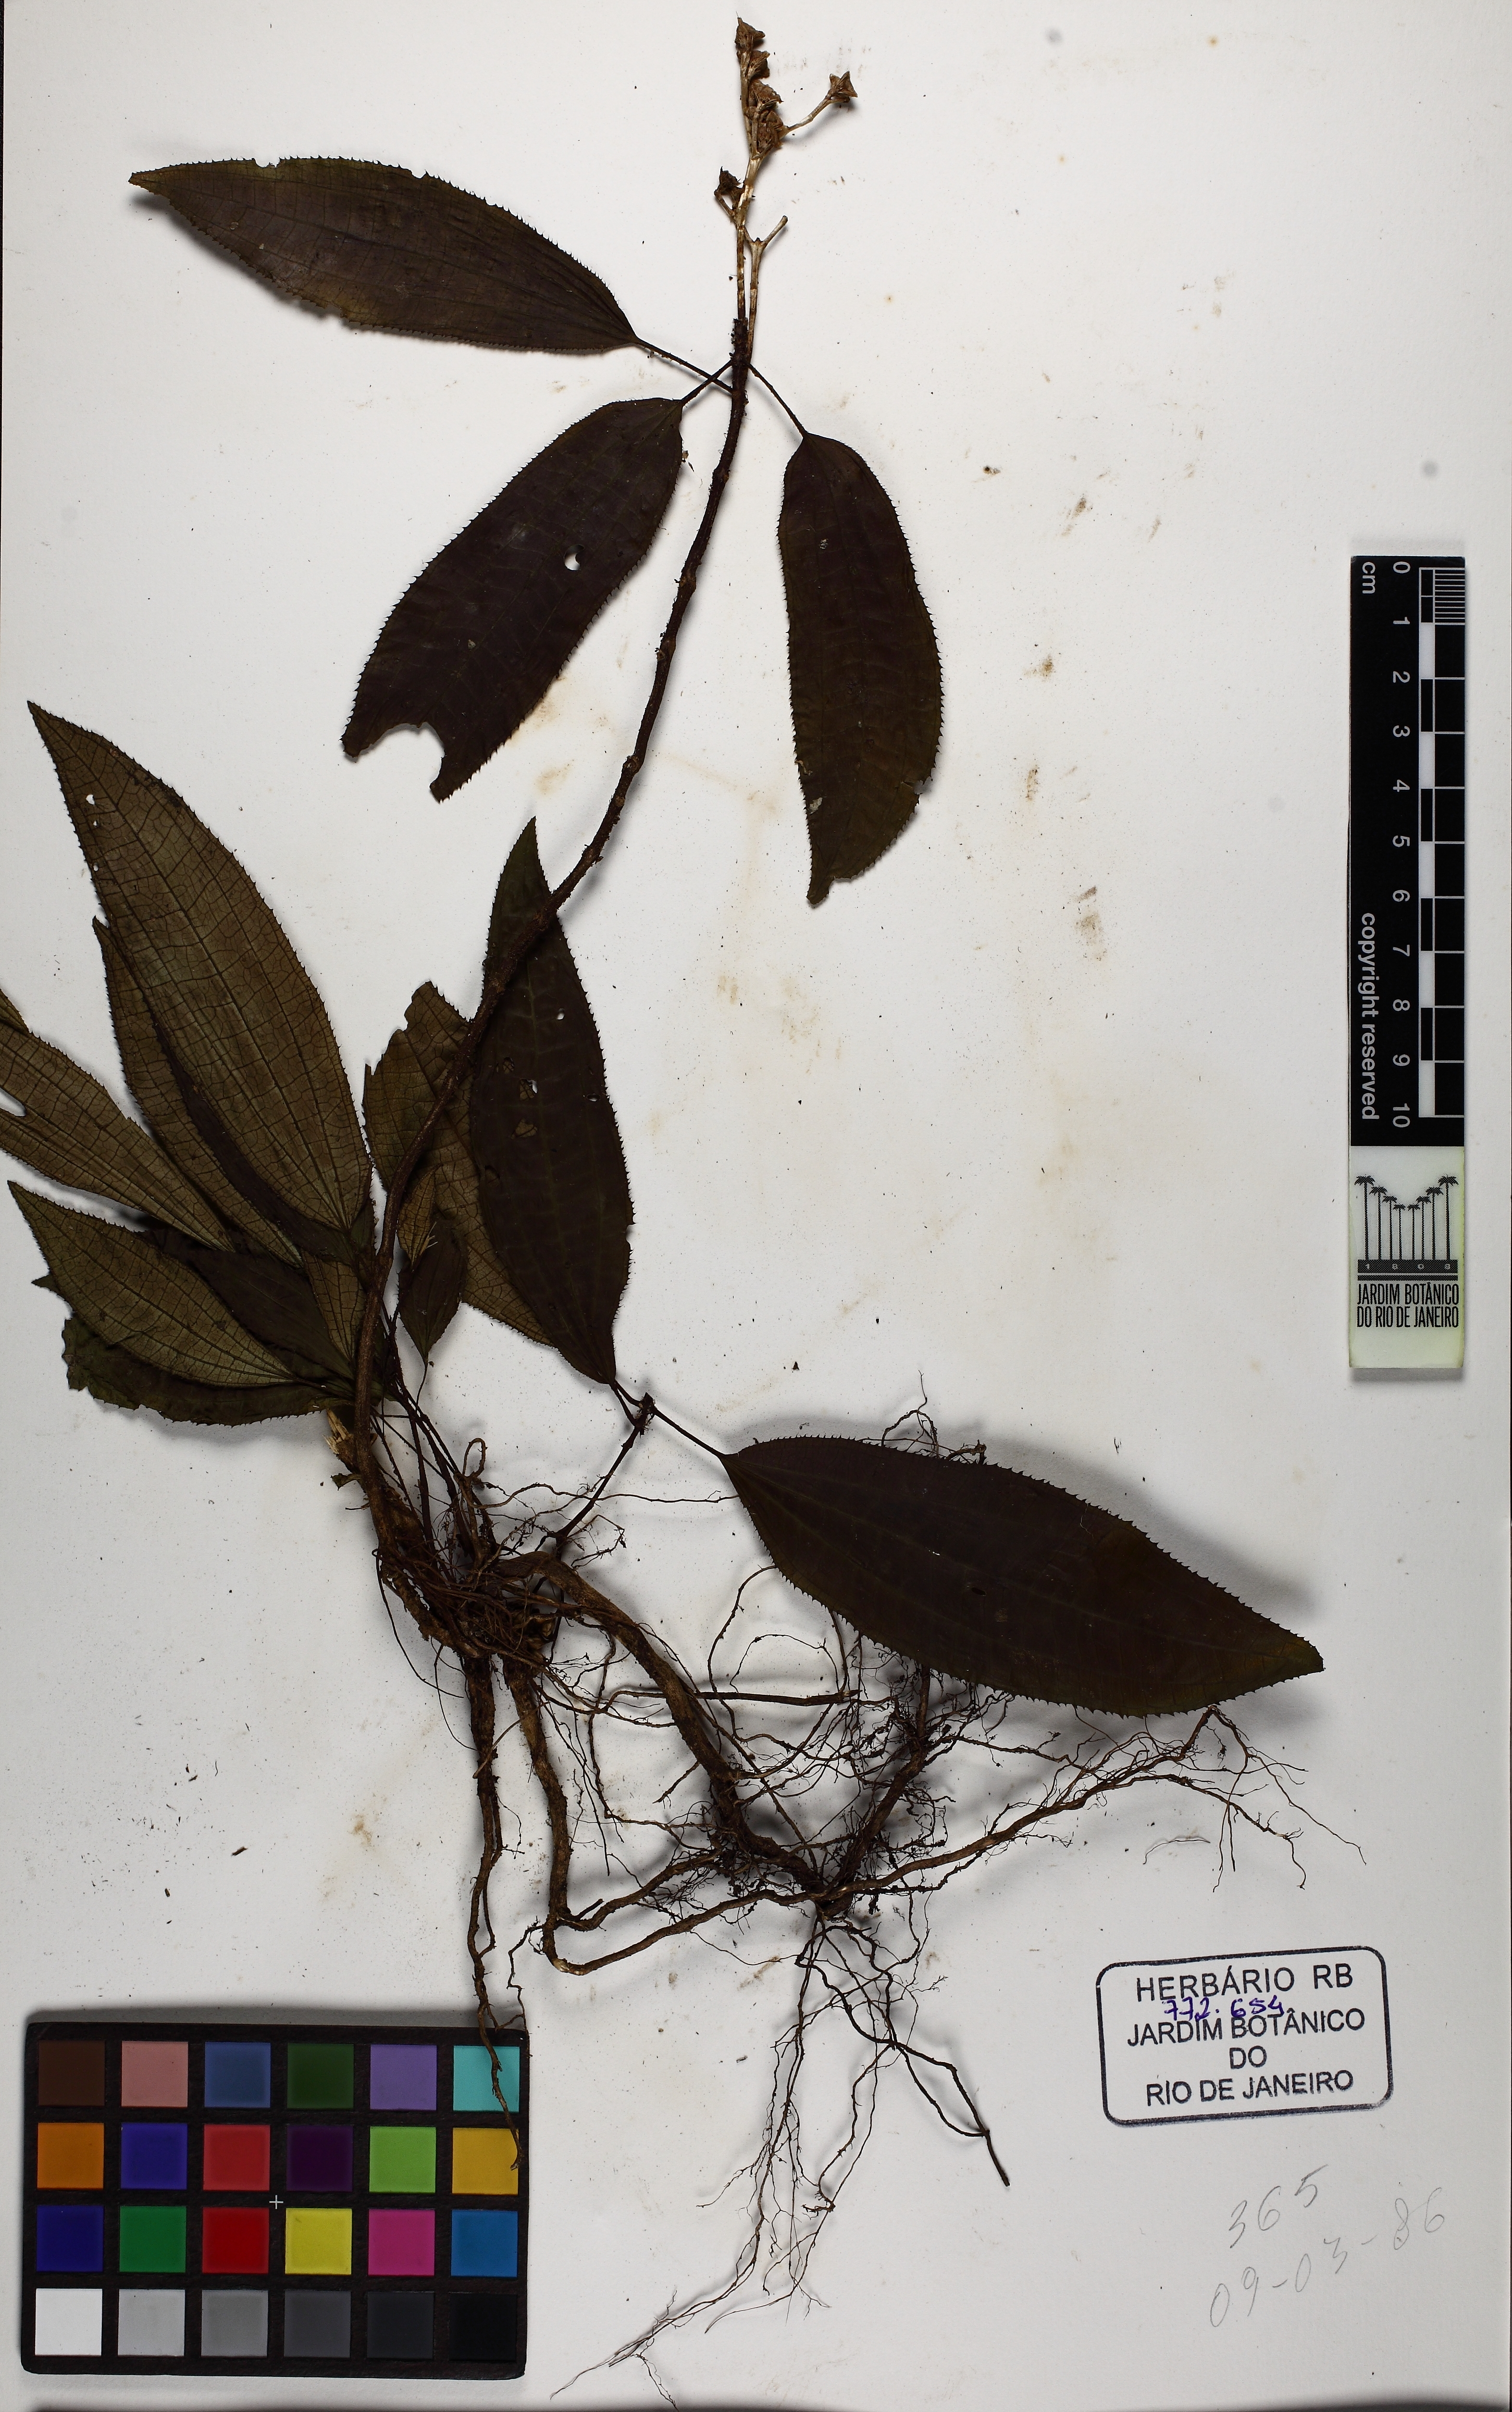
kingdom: Plantae
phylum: Tracheophyta
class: Magnoliopsida
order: Myrtales
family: Melastomataceae
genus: Bertolonia
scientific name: Bertolonia acuminata
